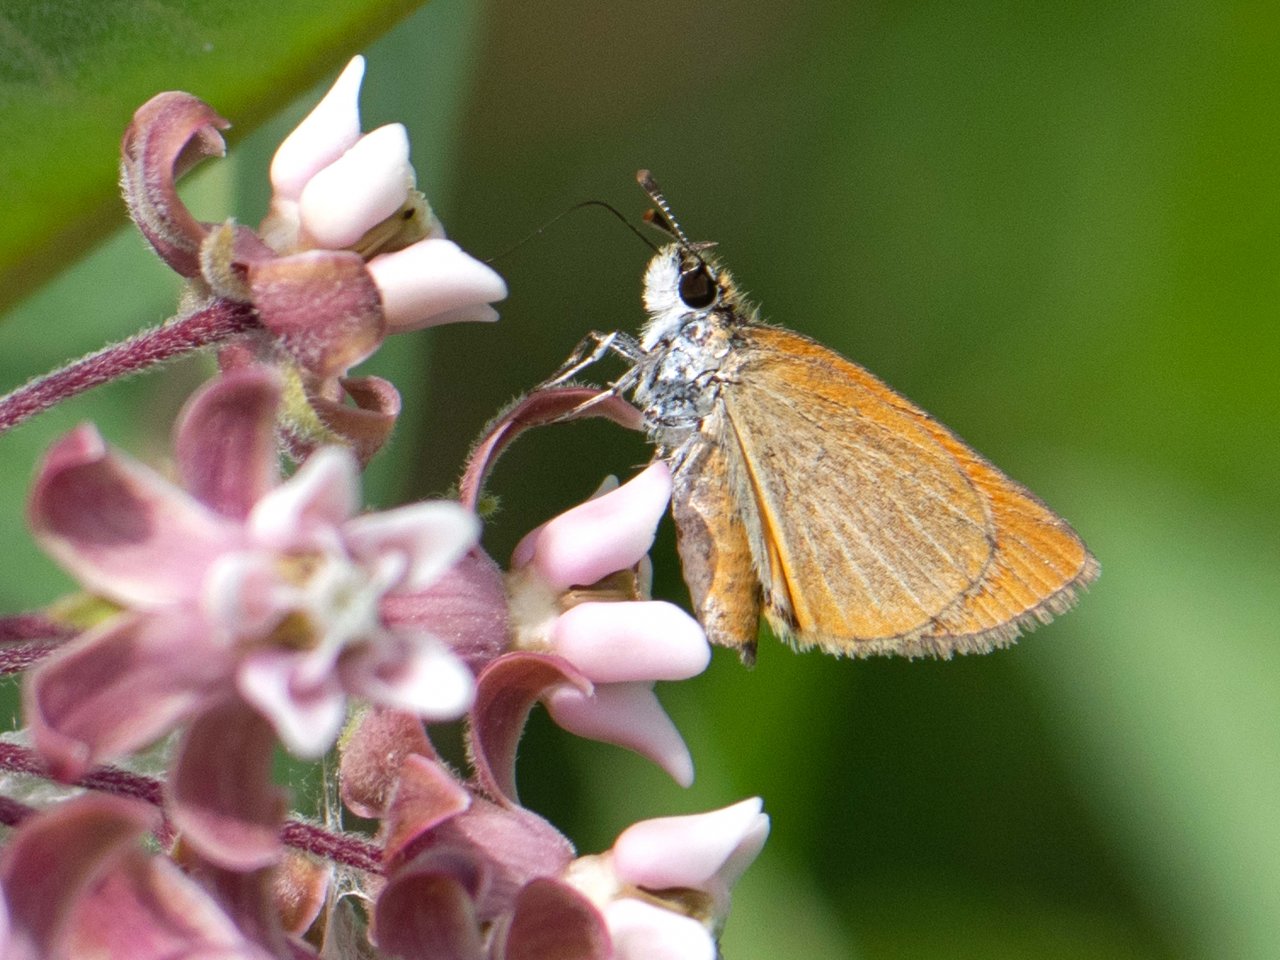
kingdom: Animalia
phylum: Arthropoda
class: Insecta
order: Lepidoptera
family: Hesperiidae
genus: Ancyloxypha
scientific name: Ancyloxypha numitor
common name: Least Skipper
